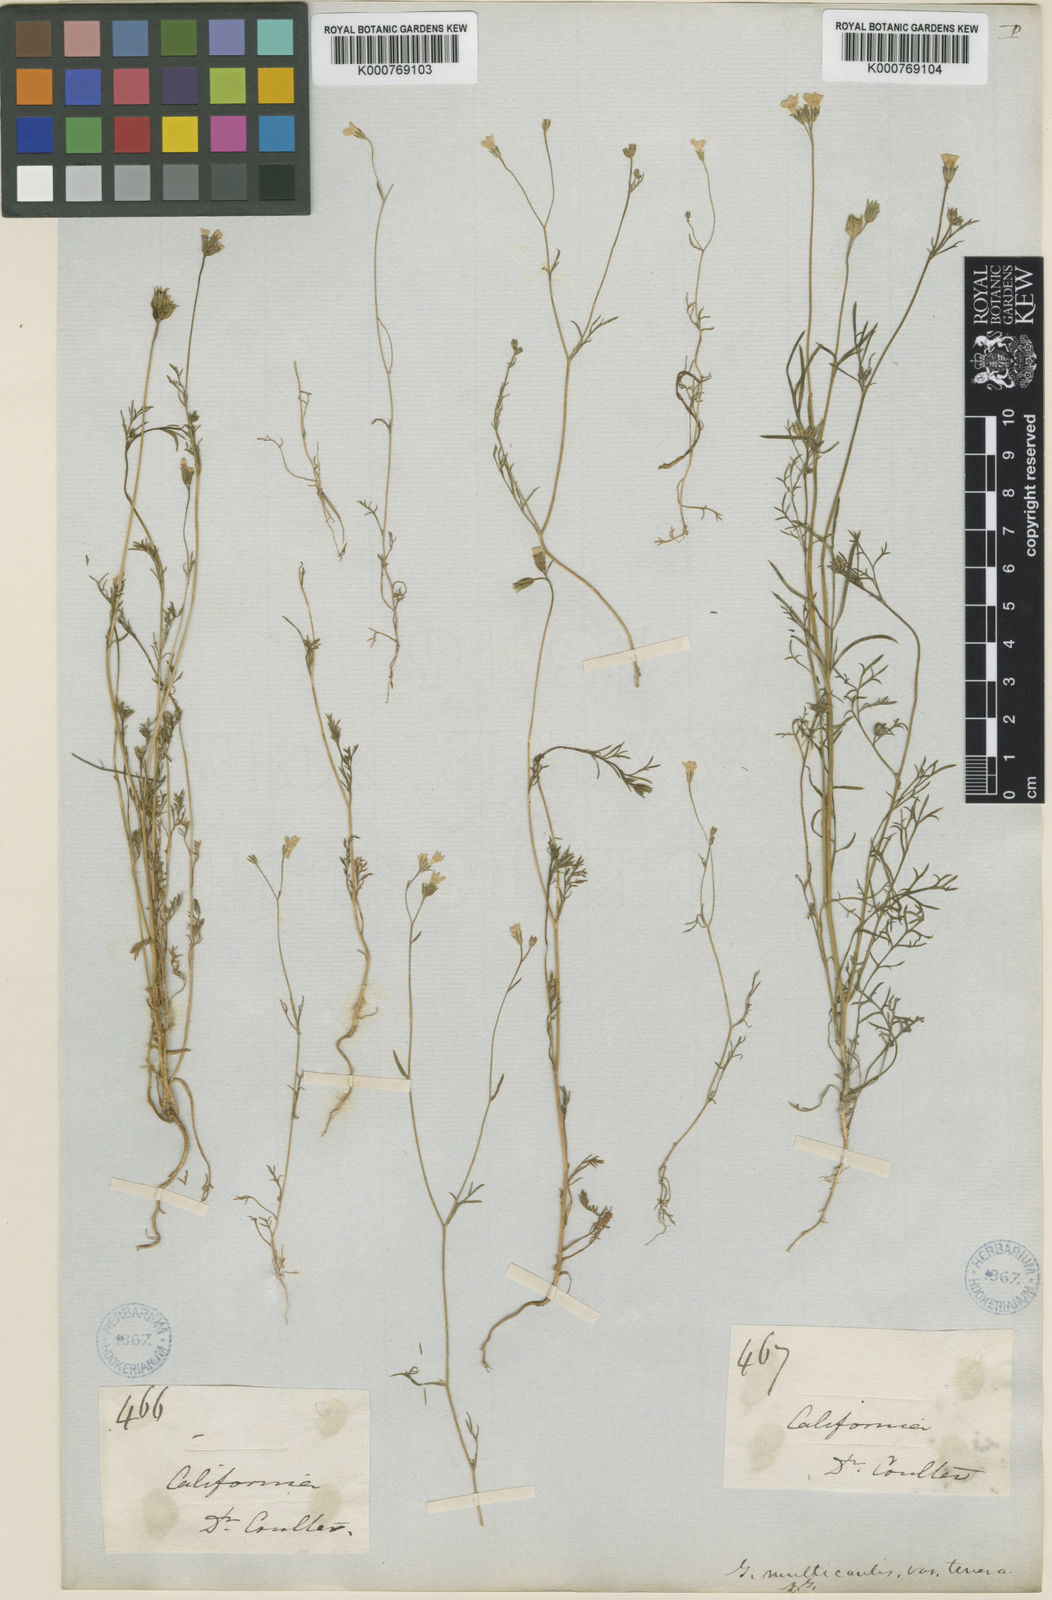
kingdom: Plantae
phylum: Tracheophyta
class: Magnoliopsida
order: Ericales
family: Polemoniaceae
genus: Gilia
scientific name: Gilia achilleifolia
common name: California gily-flower
